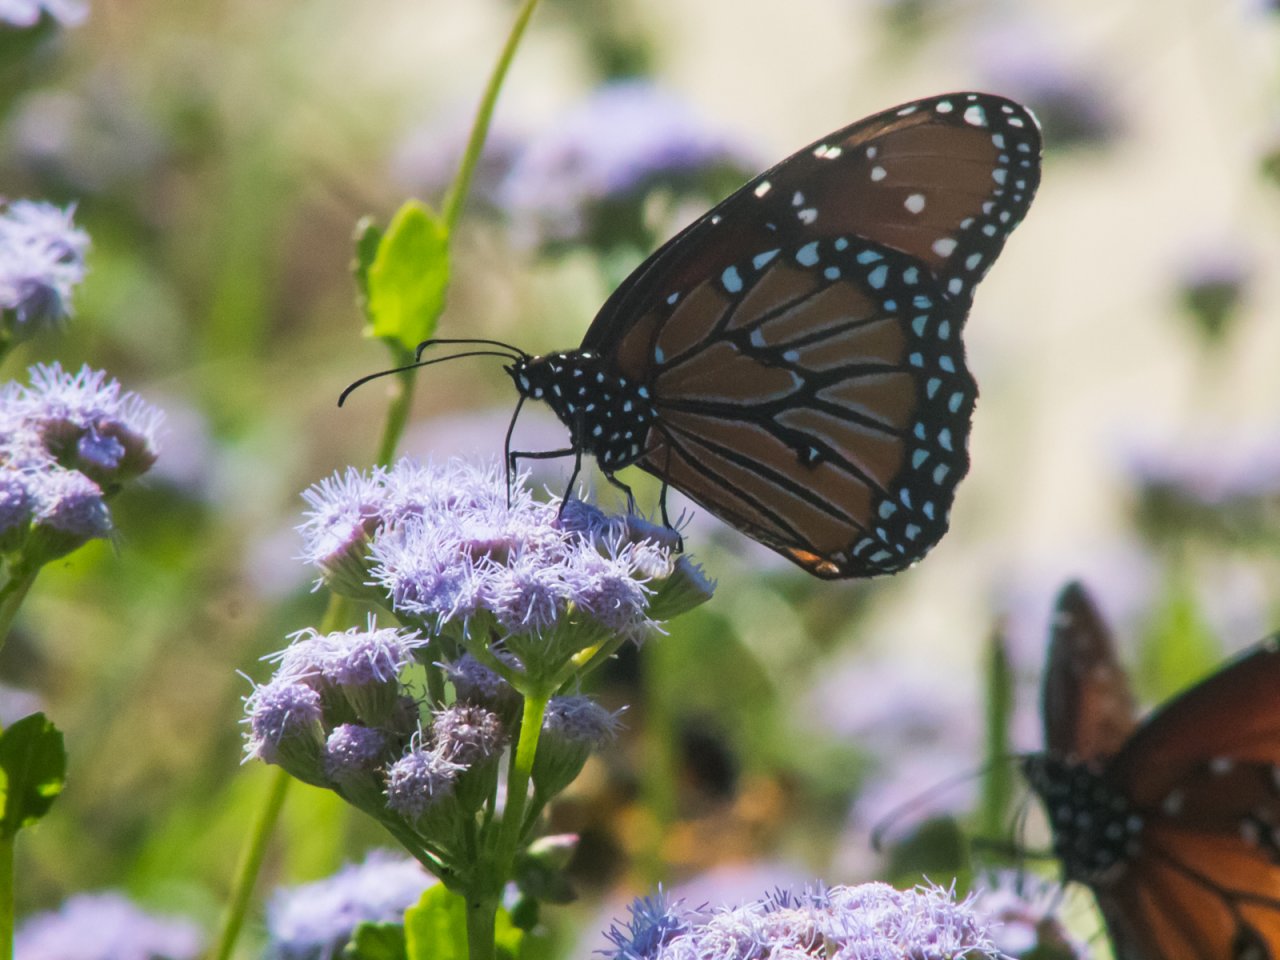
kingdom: Animalia
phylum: Arthropoda
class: Insecta
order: Lepidoptera
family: Nymphalidae
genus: Danaus
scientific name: Danaus gilippus
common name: Queen
